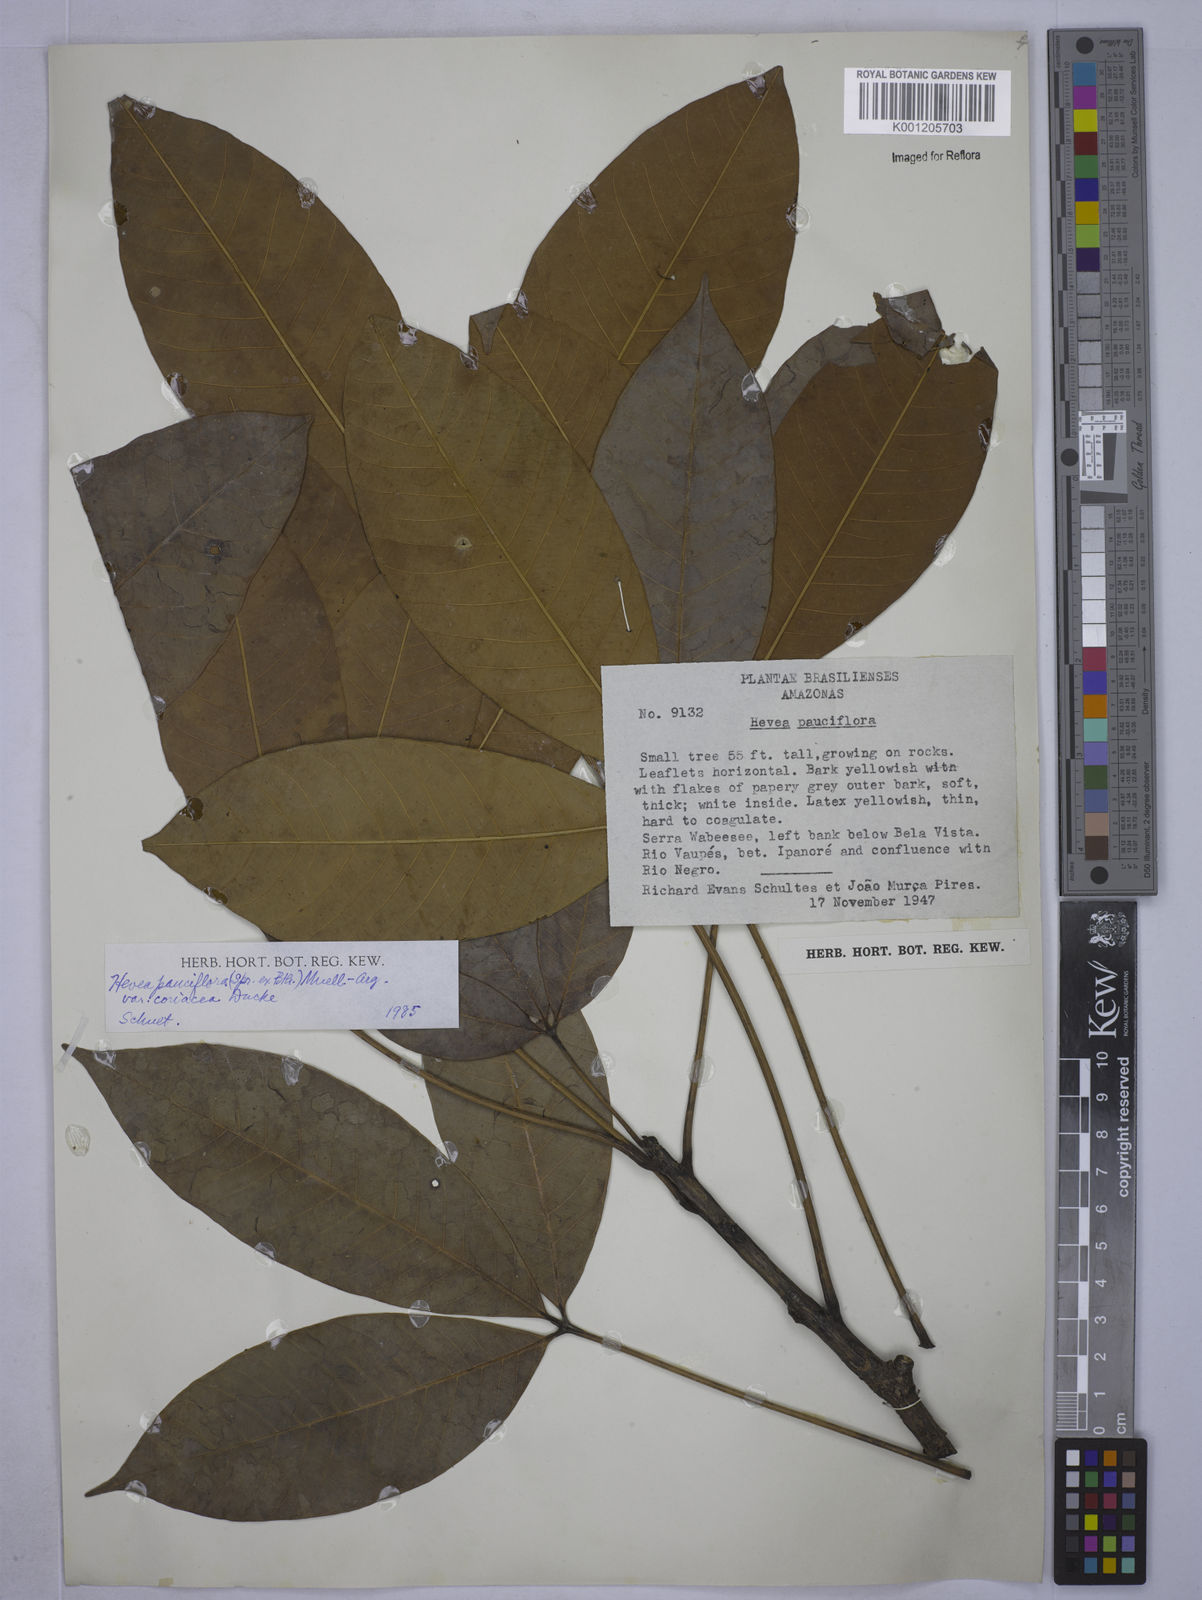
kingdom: Plantae
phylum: Tracheophyta
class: Magnoliopsida
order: Malpighiales
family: Euphorbiaceae
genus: Hevea
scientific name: Hevea pauciflora
